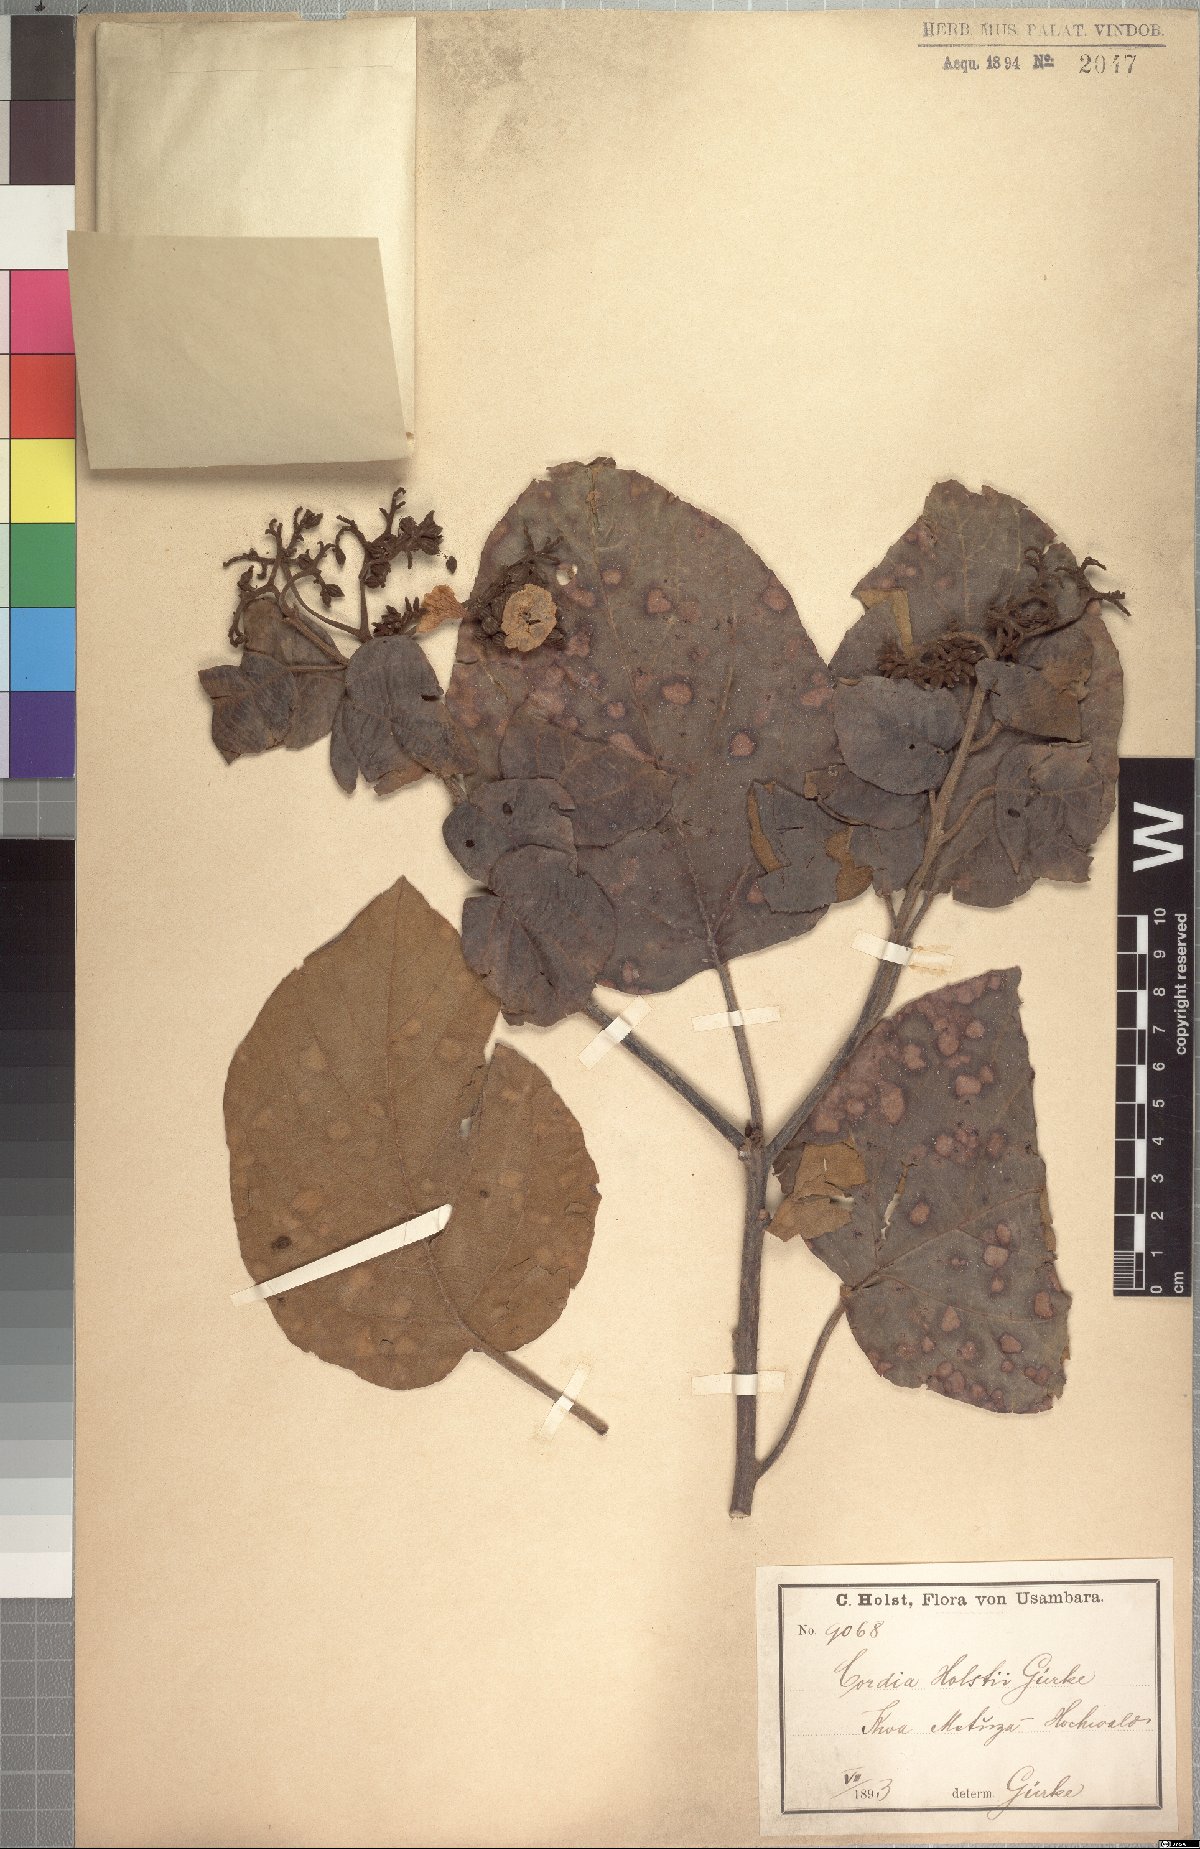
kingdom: Plantae
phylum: Tracheophyta
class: Magnoliopsida
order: Boraginales
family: Cordiaceae
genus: Cordia
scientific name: Cordia africana
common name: Large-leaved cordia
